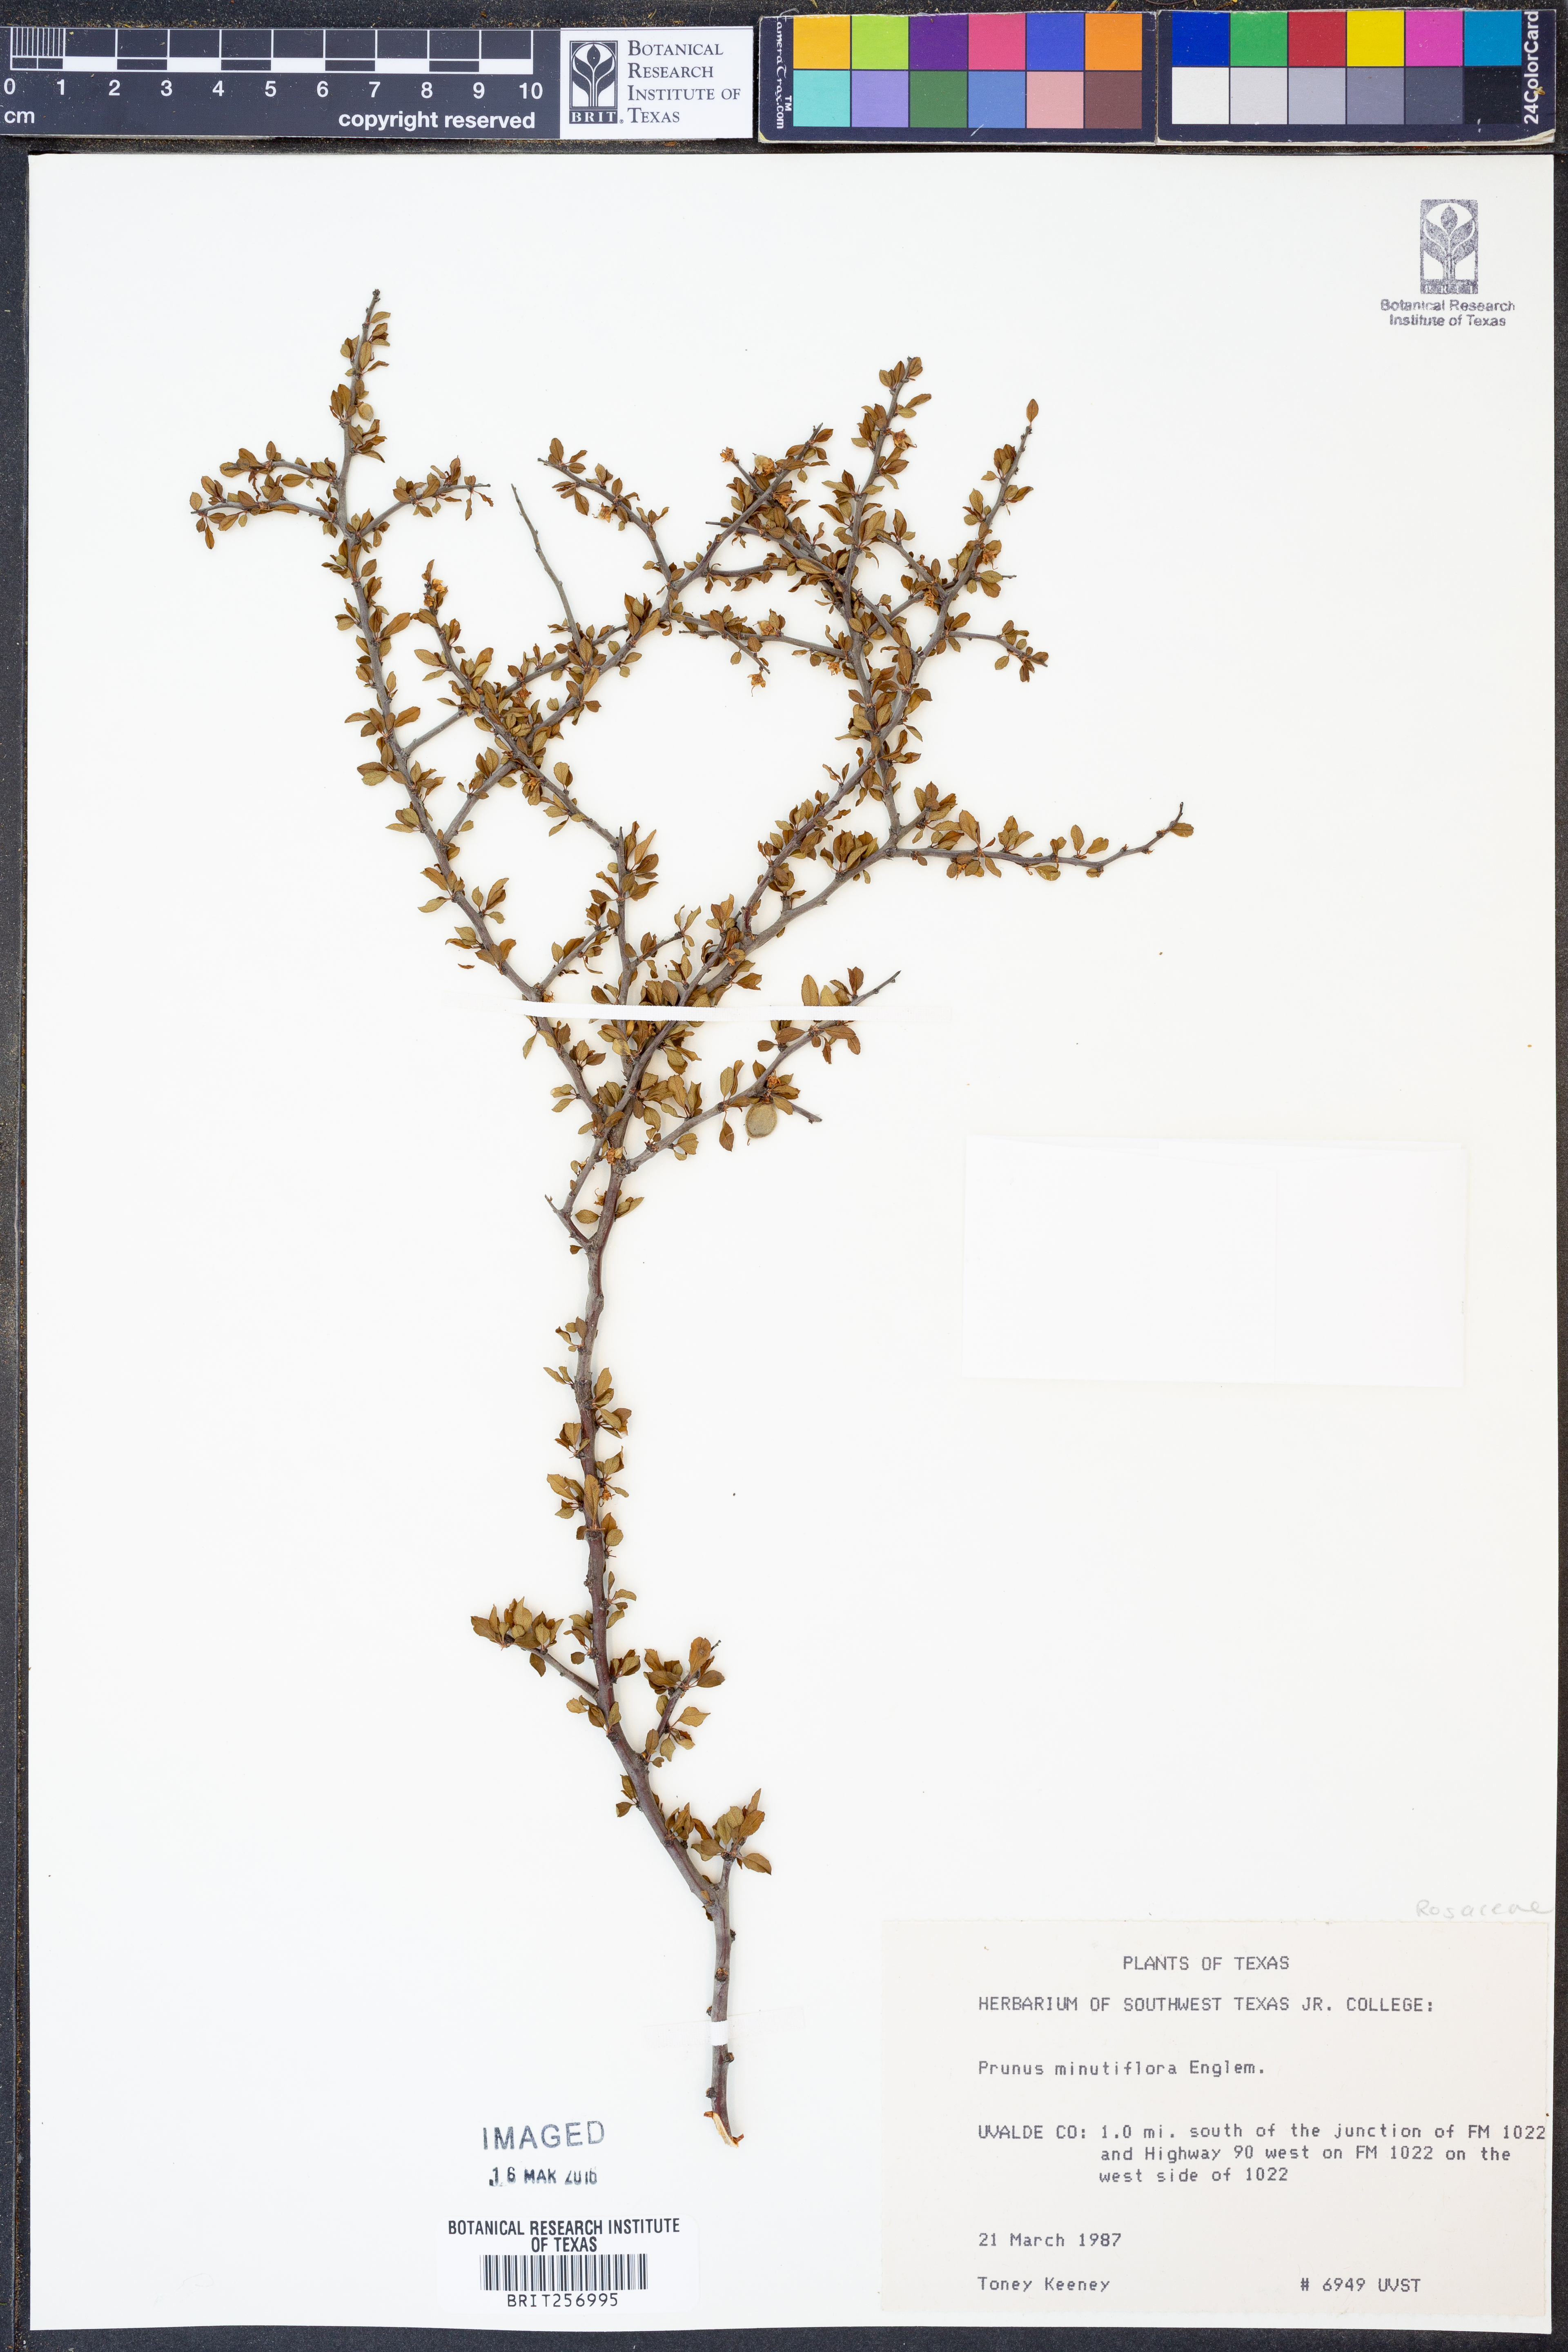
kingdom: Plantae
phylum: Tracheophyta
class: Magnoliopsida
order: Rosales
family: Rosaceae
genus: Prunus
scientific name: Prunus minutiflora
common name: Texas almond
